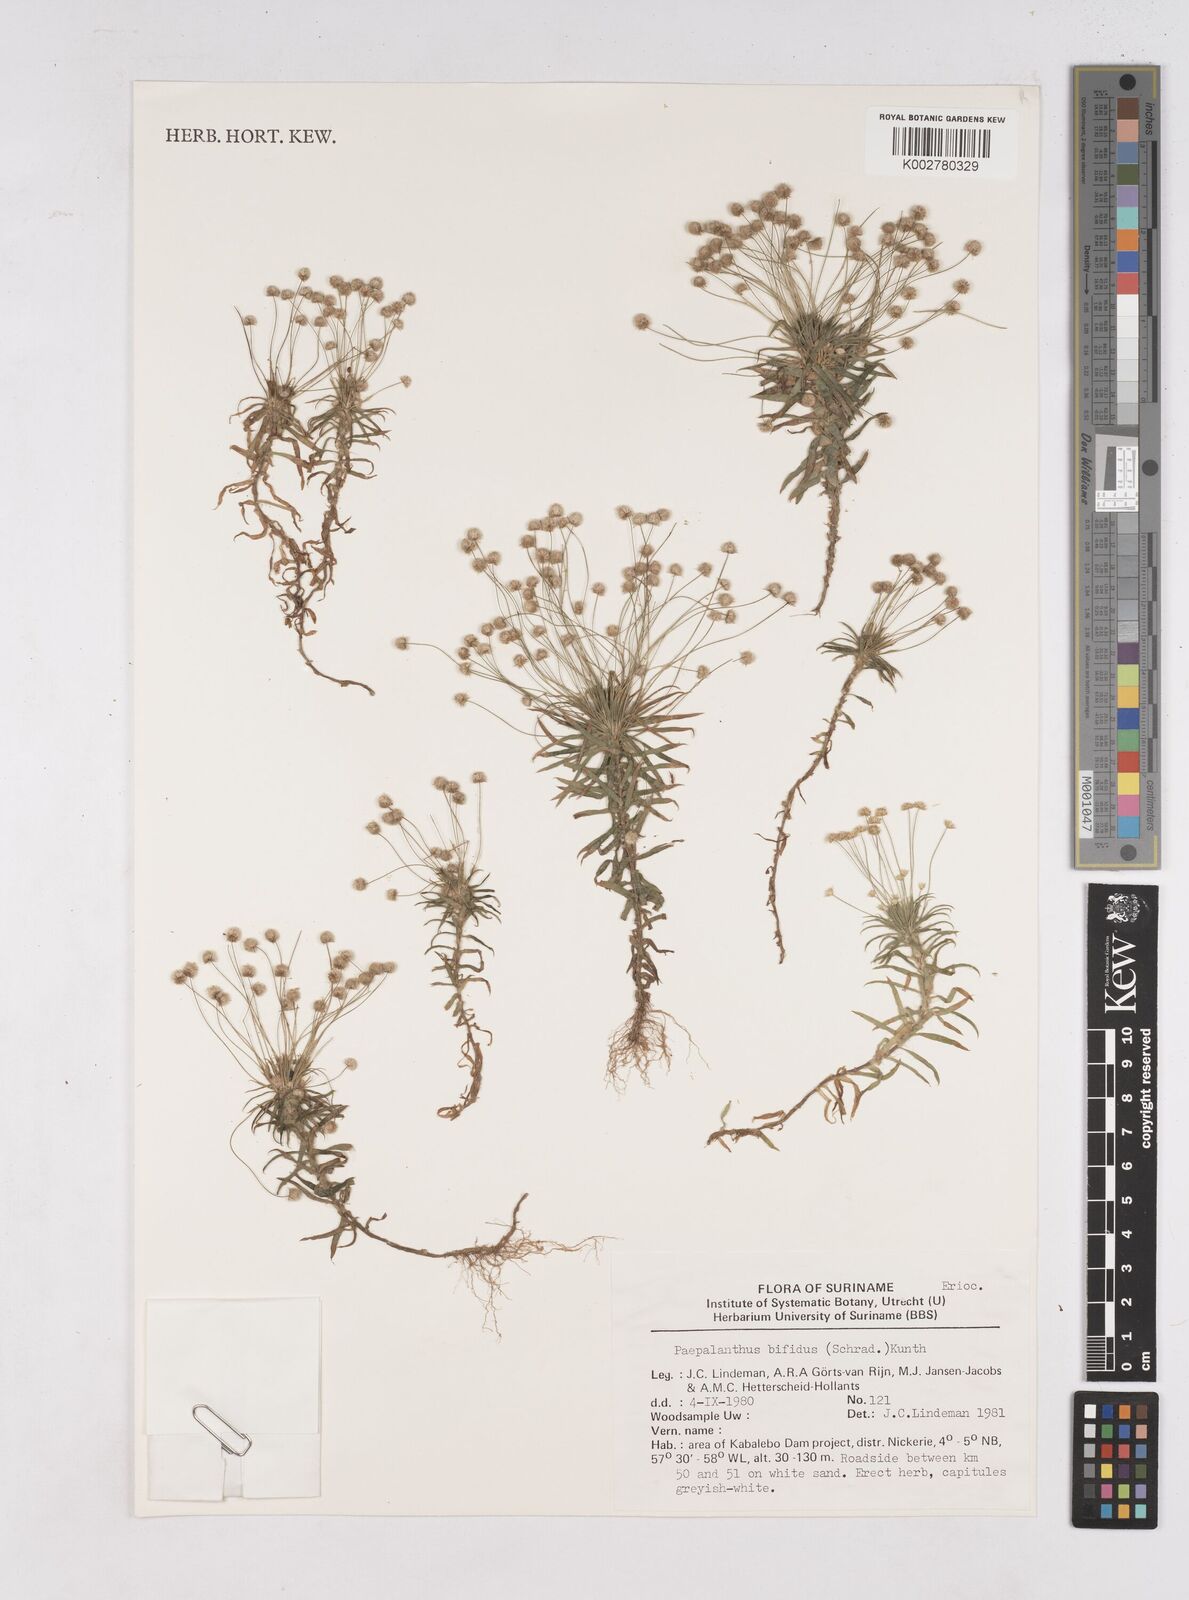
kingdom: Plantae
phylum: Tracheophyta
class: Liliopsida
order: Poales
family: Eriocaulaceae
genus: Paepalanthus
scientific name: Paepalanthus bifidus
